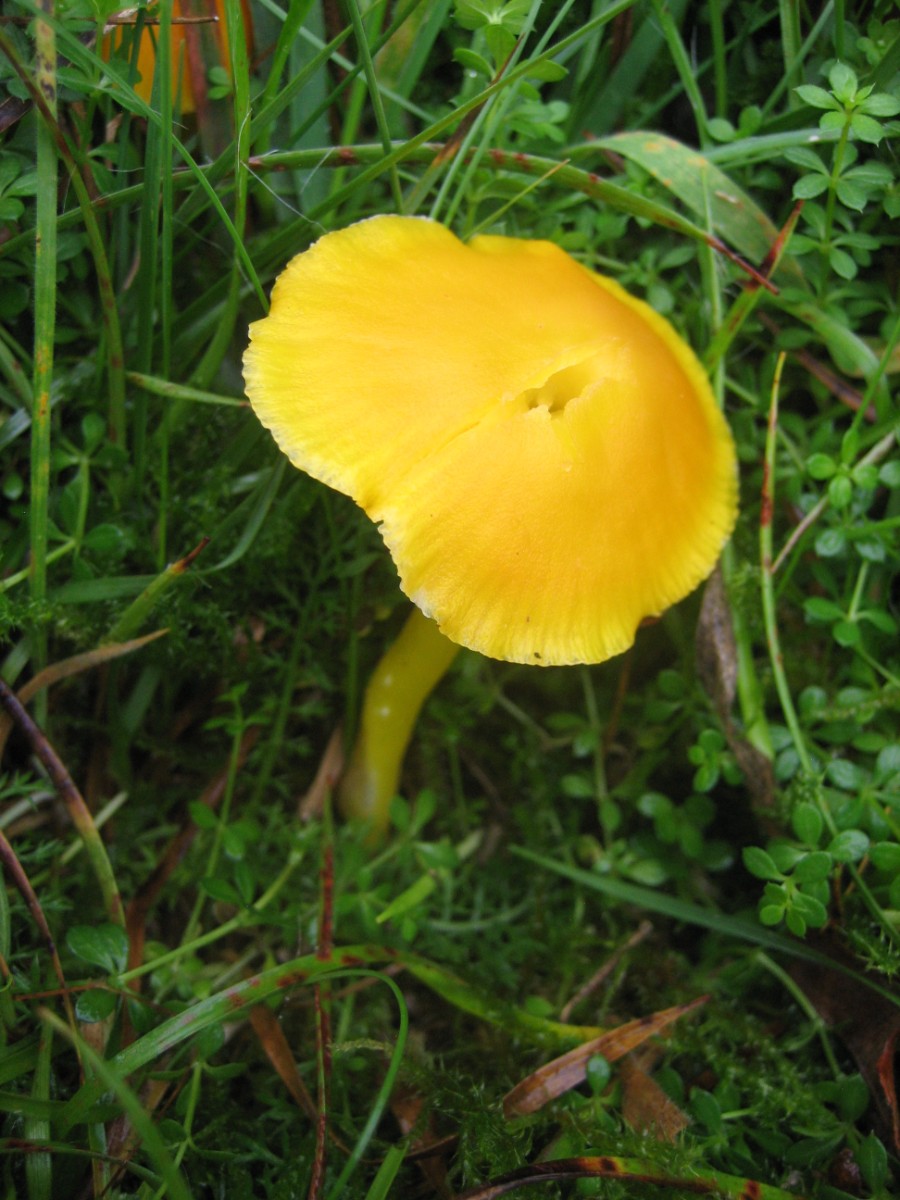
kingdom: Fungi
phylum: Basidiomycota
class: Agaricomycetes
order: Agaricales
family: Hygrophoraceae
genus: Hygrocybe
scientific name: Hygrocybe ceracea
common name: voksgul vokshat
